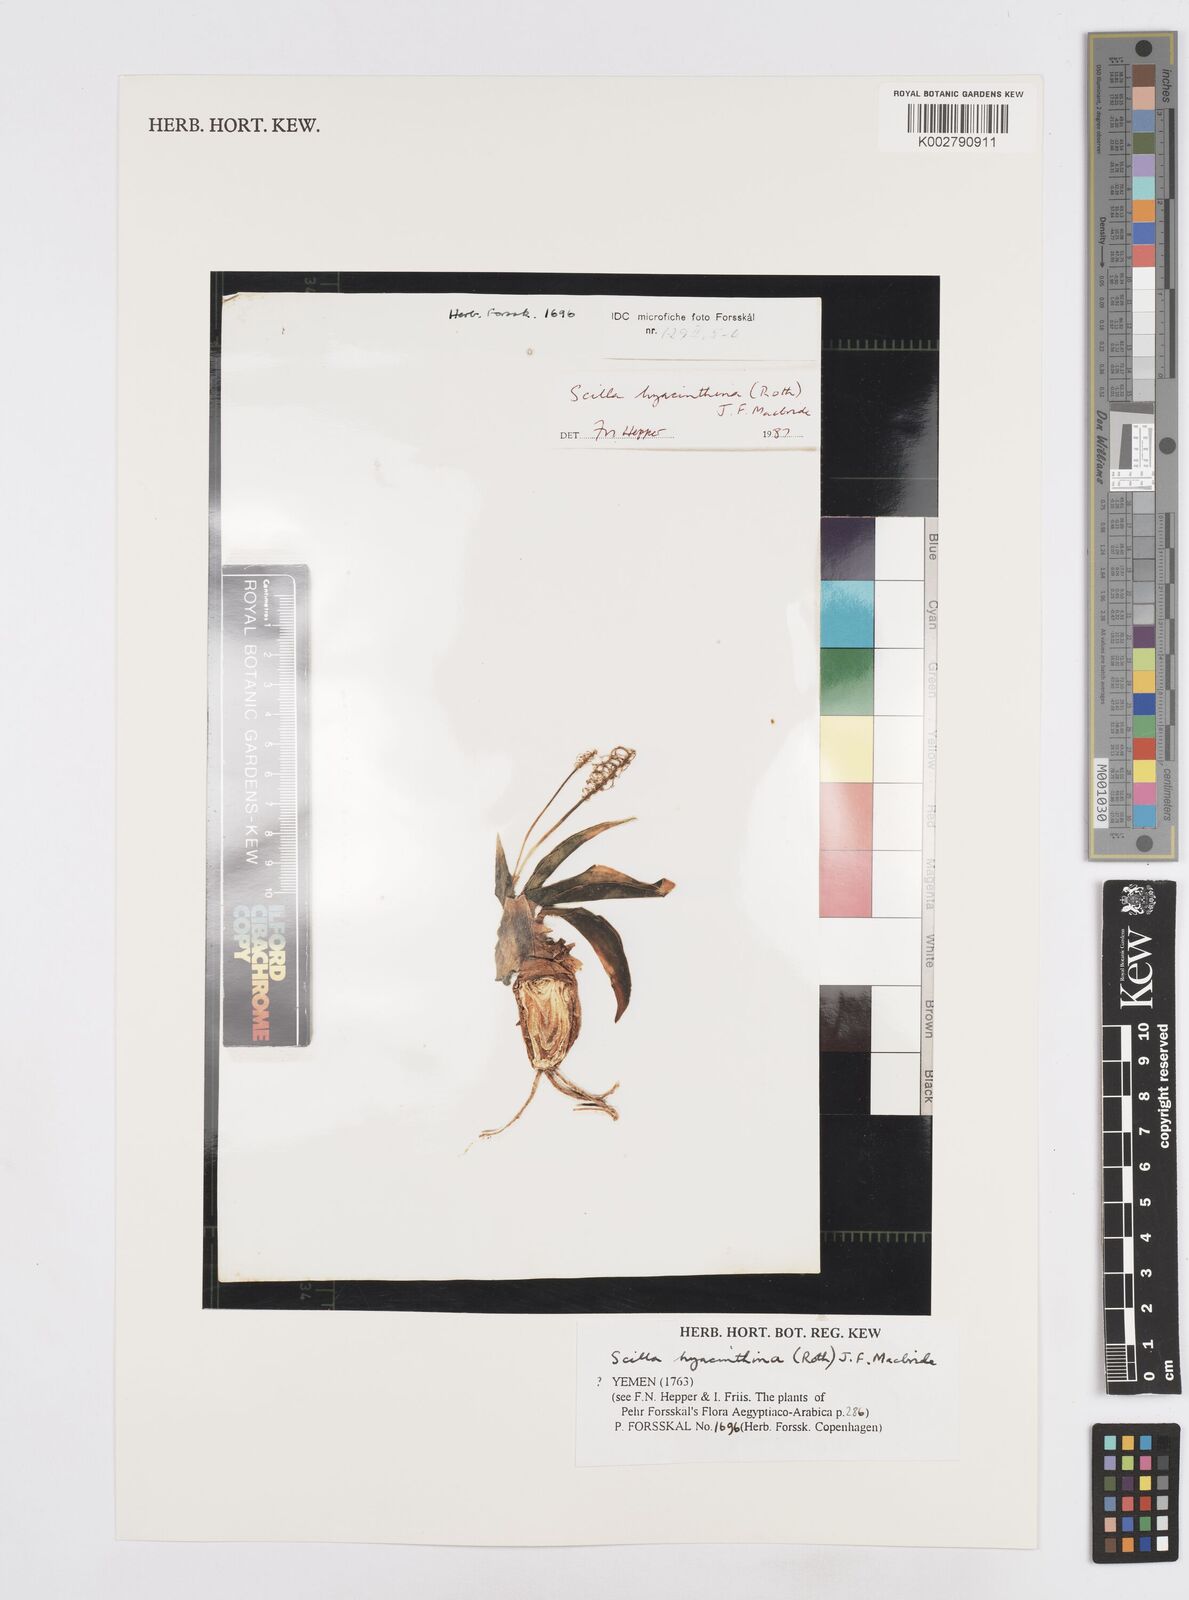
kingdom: Plantae
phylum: Tracheophyta
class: Liliopsida
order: Asparagales
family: Asparagaceae
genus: Ledebouria
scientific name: Ledebouria revoluta
